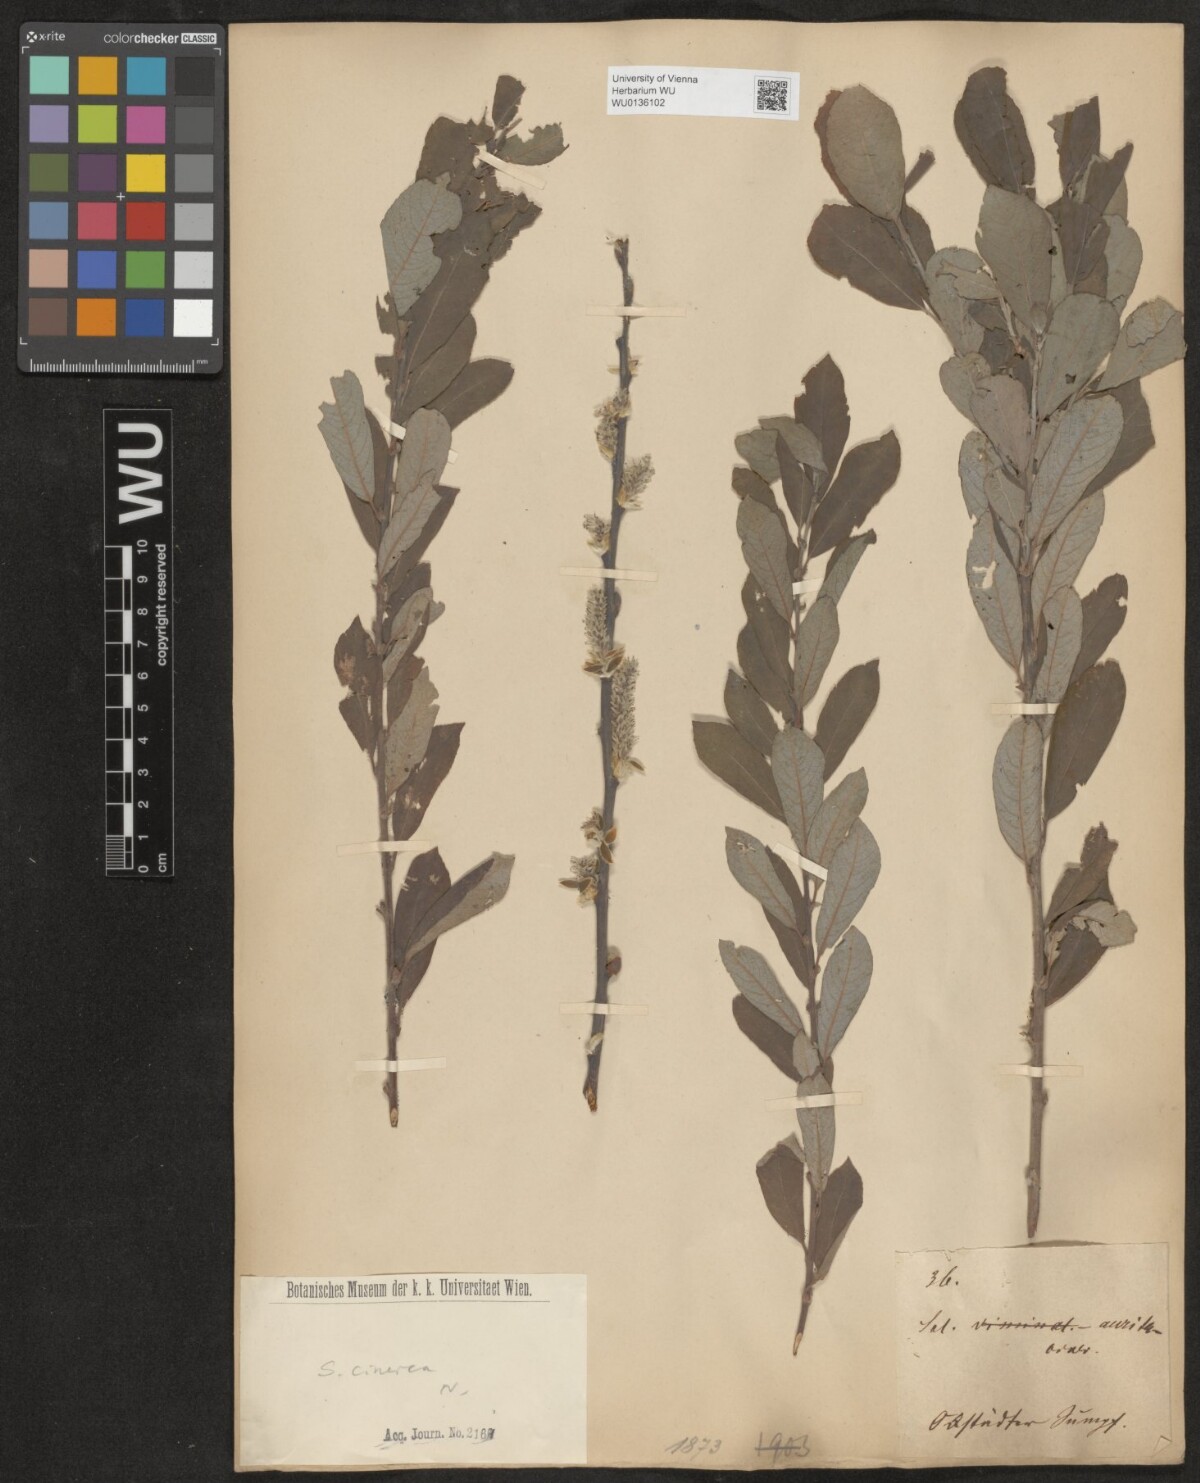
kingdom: Plantae
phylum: Tracheophyta
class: Magnoliopsida
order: Malpighiales
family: Salicaceae
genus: Salix
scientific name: Salix cinerea
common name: Common sallow
